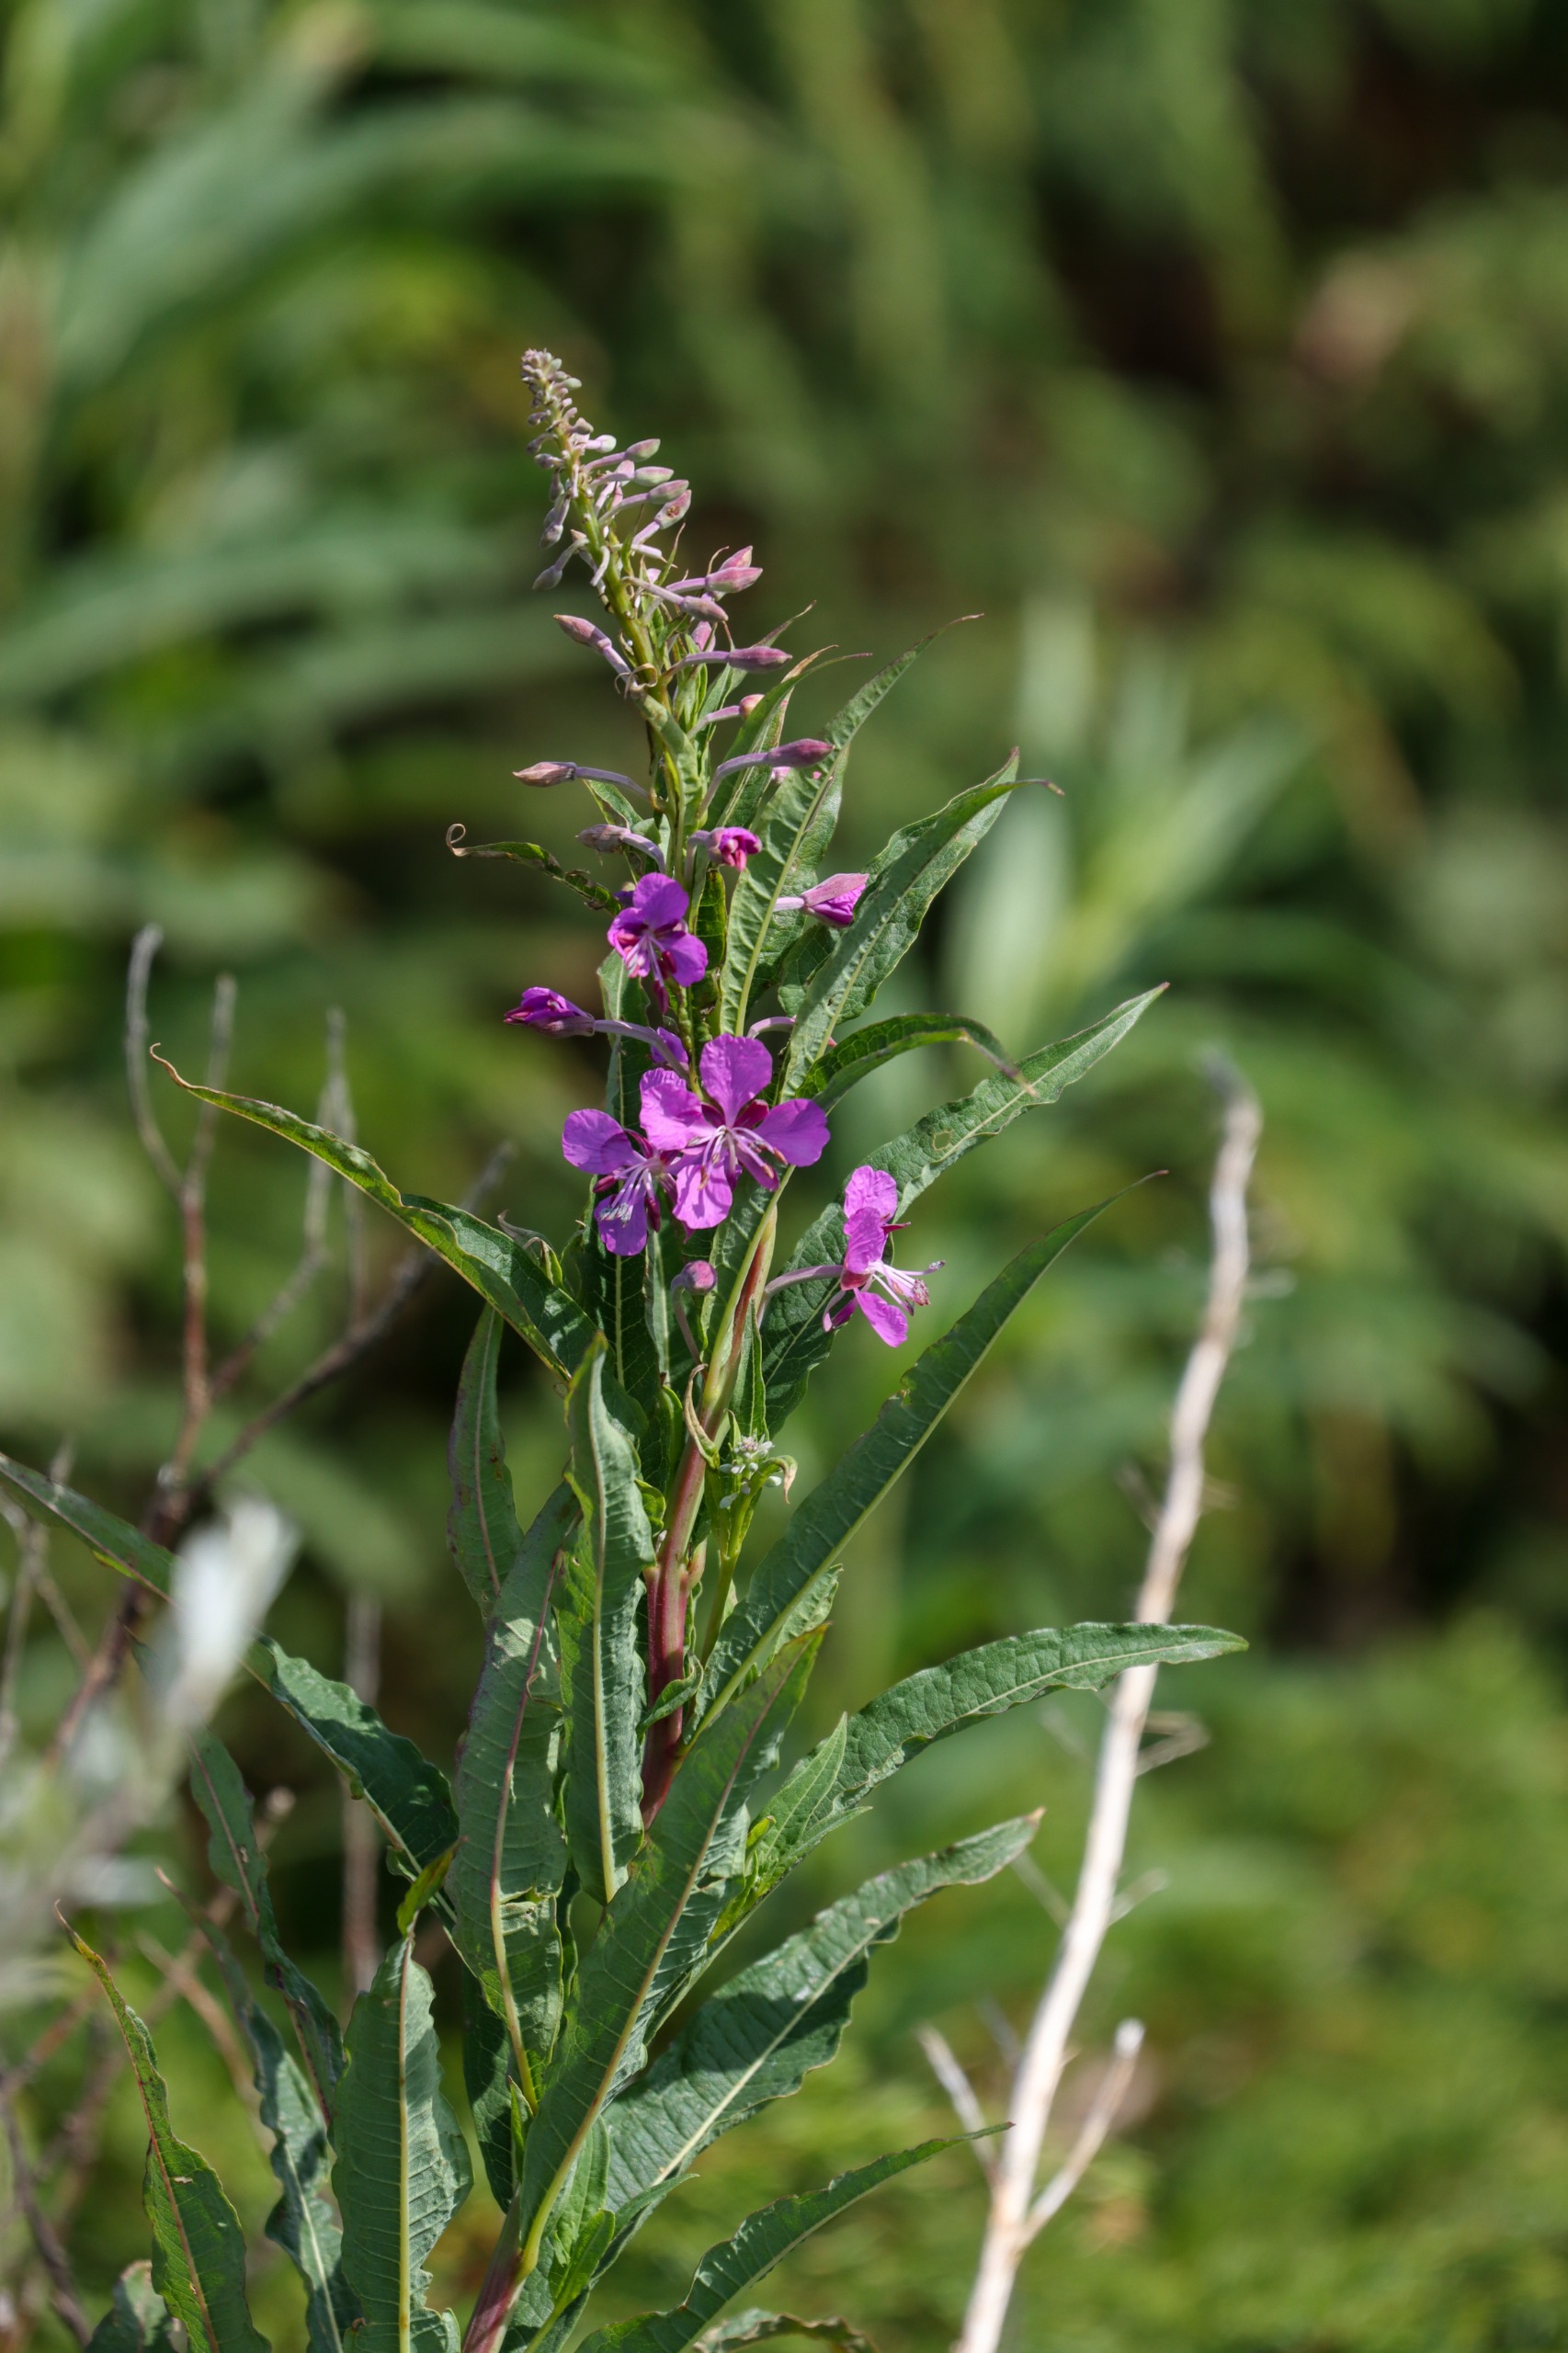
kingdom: Plantae
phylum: Tracheophyta
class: Magnoliopsida
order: Myrtales
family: Onagraceae
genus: Chamaenerion
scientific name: Chamaenerion angustifolium
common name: Gederams
